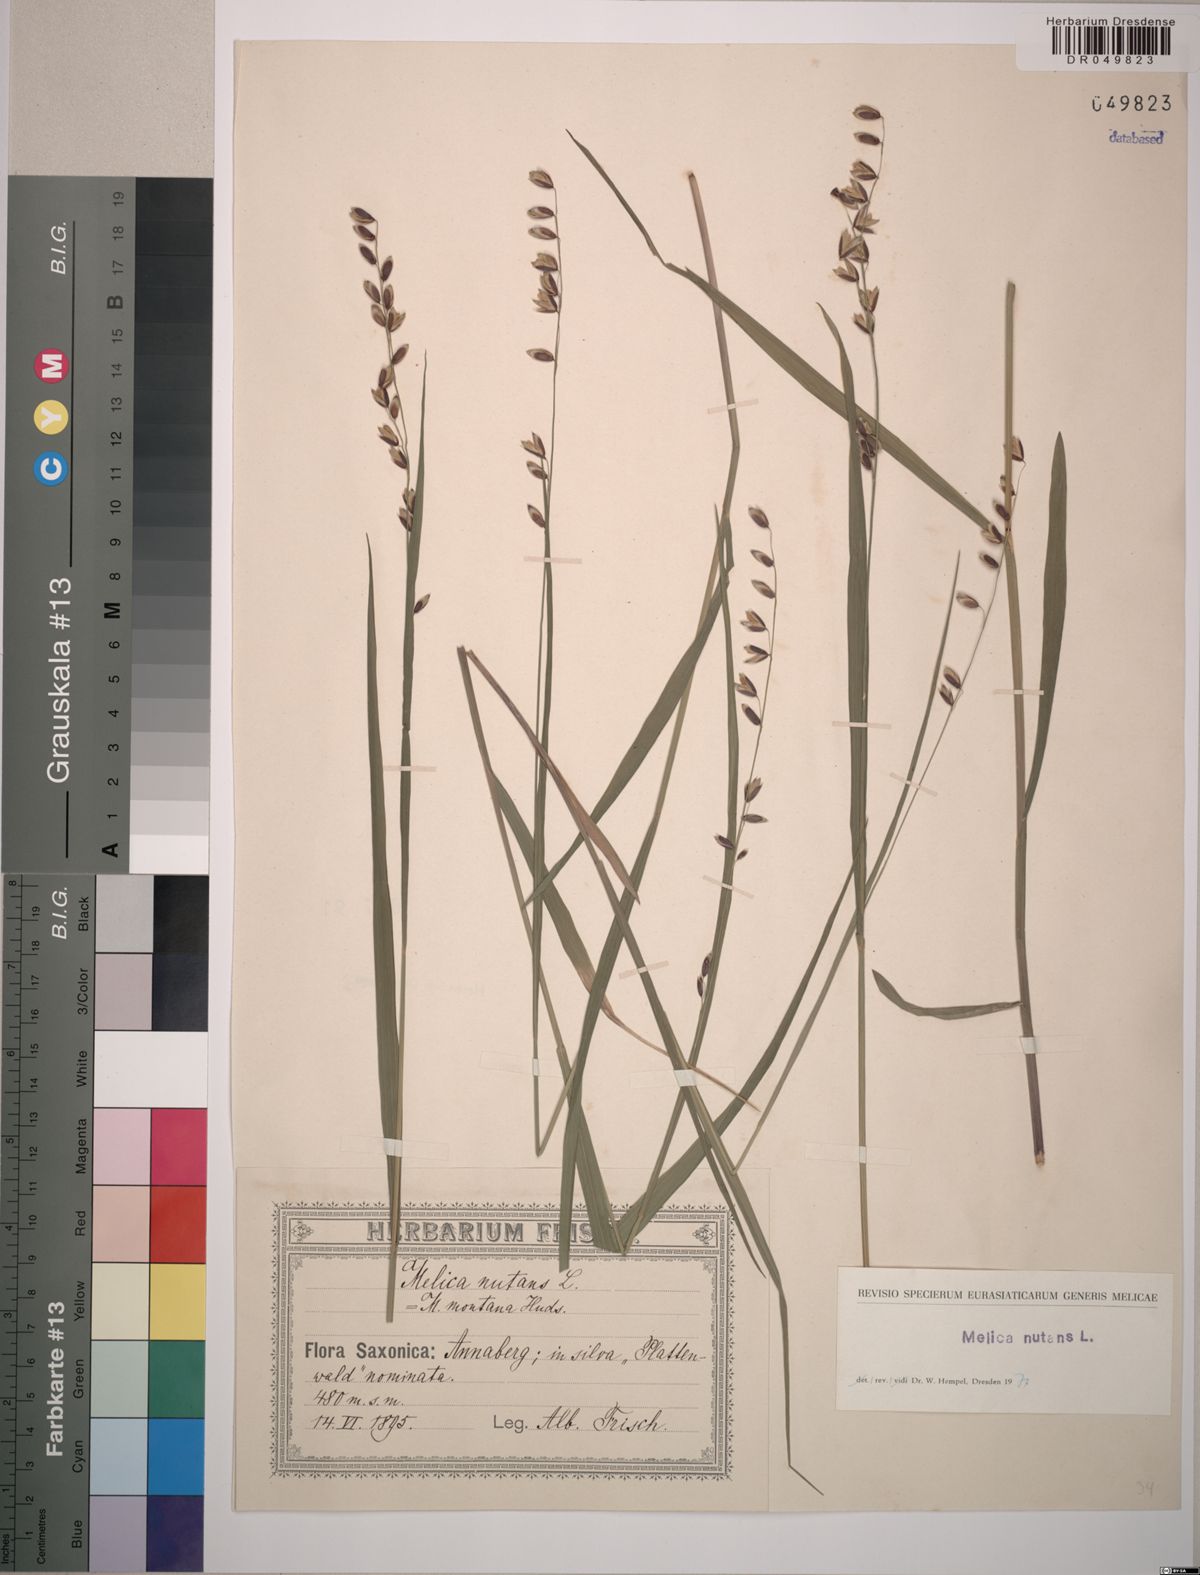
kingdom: Plantae
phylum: Tracheophyta
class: Liliopsida
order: Poales
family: Poaceae
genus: Melica
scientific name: Melica nutans
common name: Mountain melick
